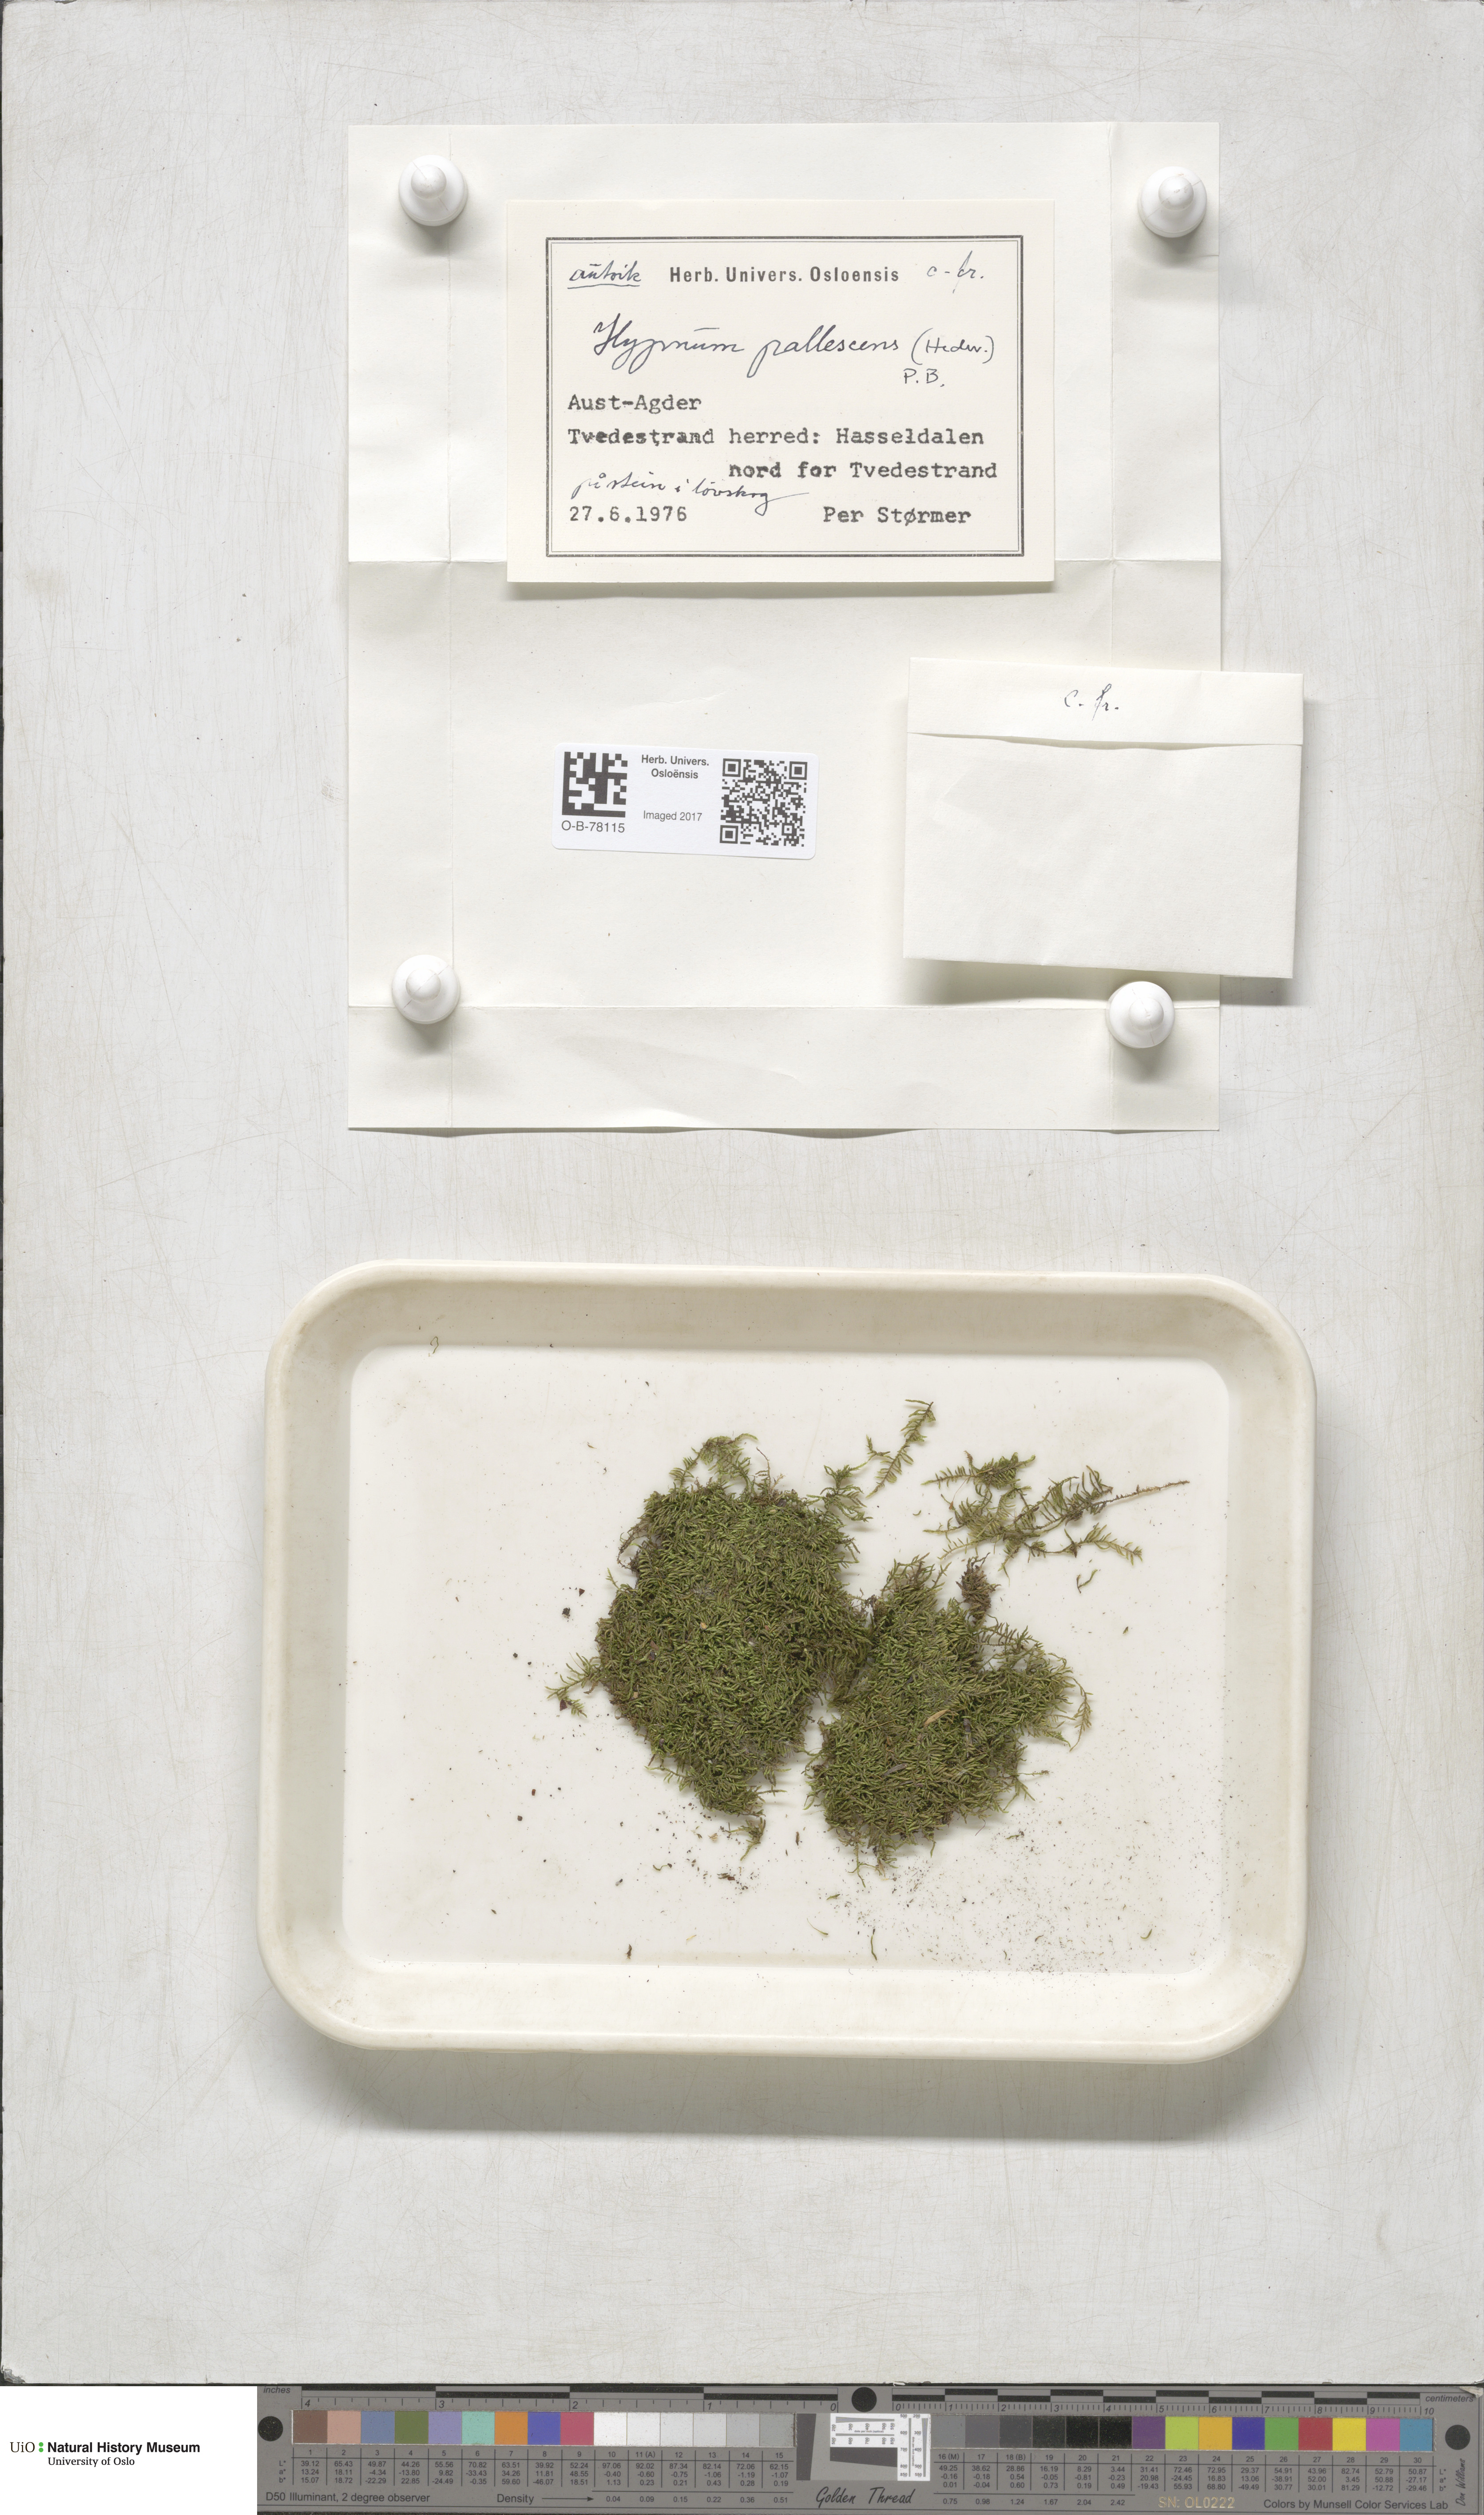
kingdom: Plantae
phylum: Bryophyta
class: Bryopsida
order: Hypnales
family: Jocheniaceae
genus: Jochenia
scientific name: Jochenia pallescens
